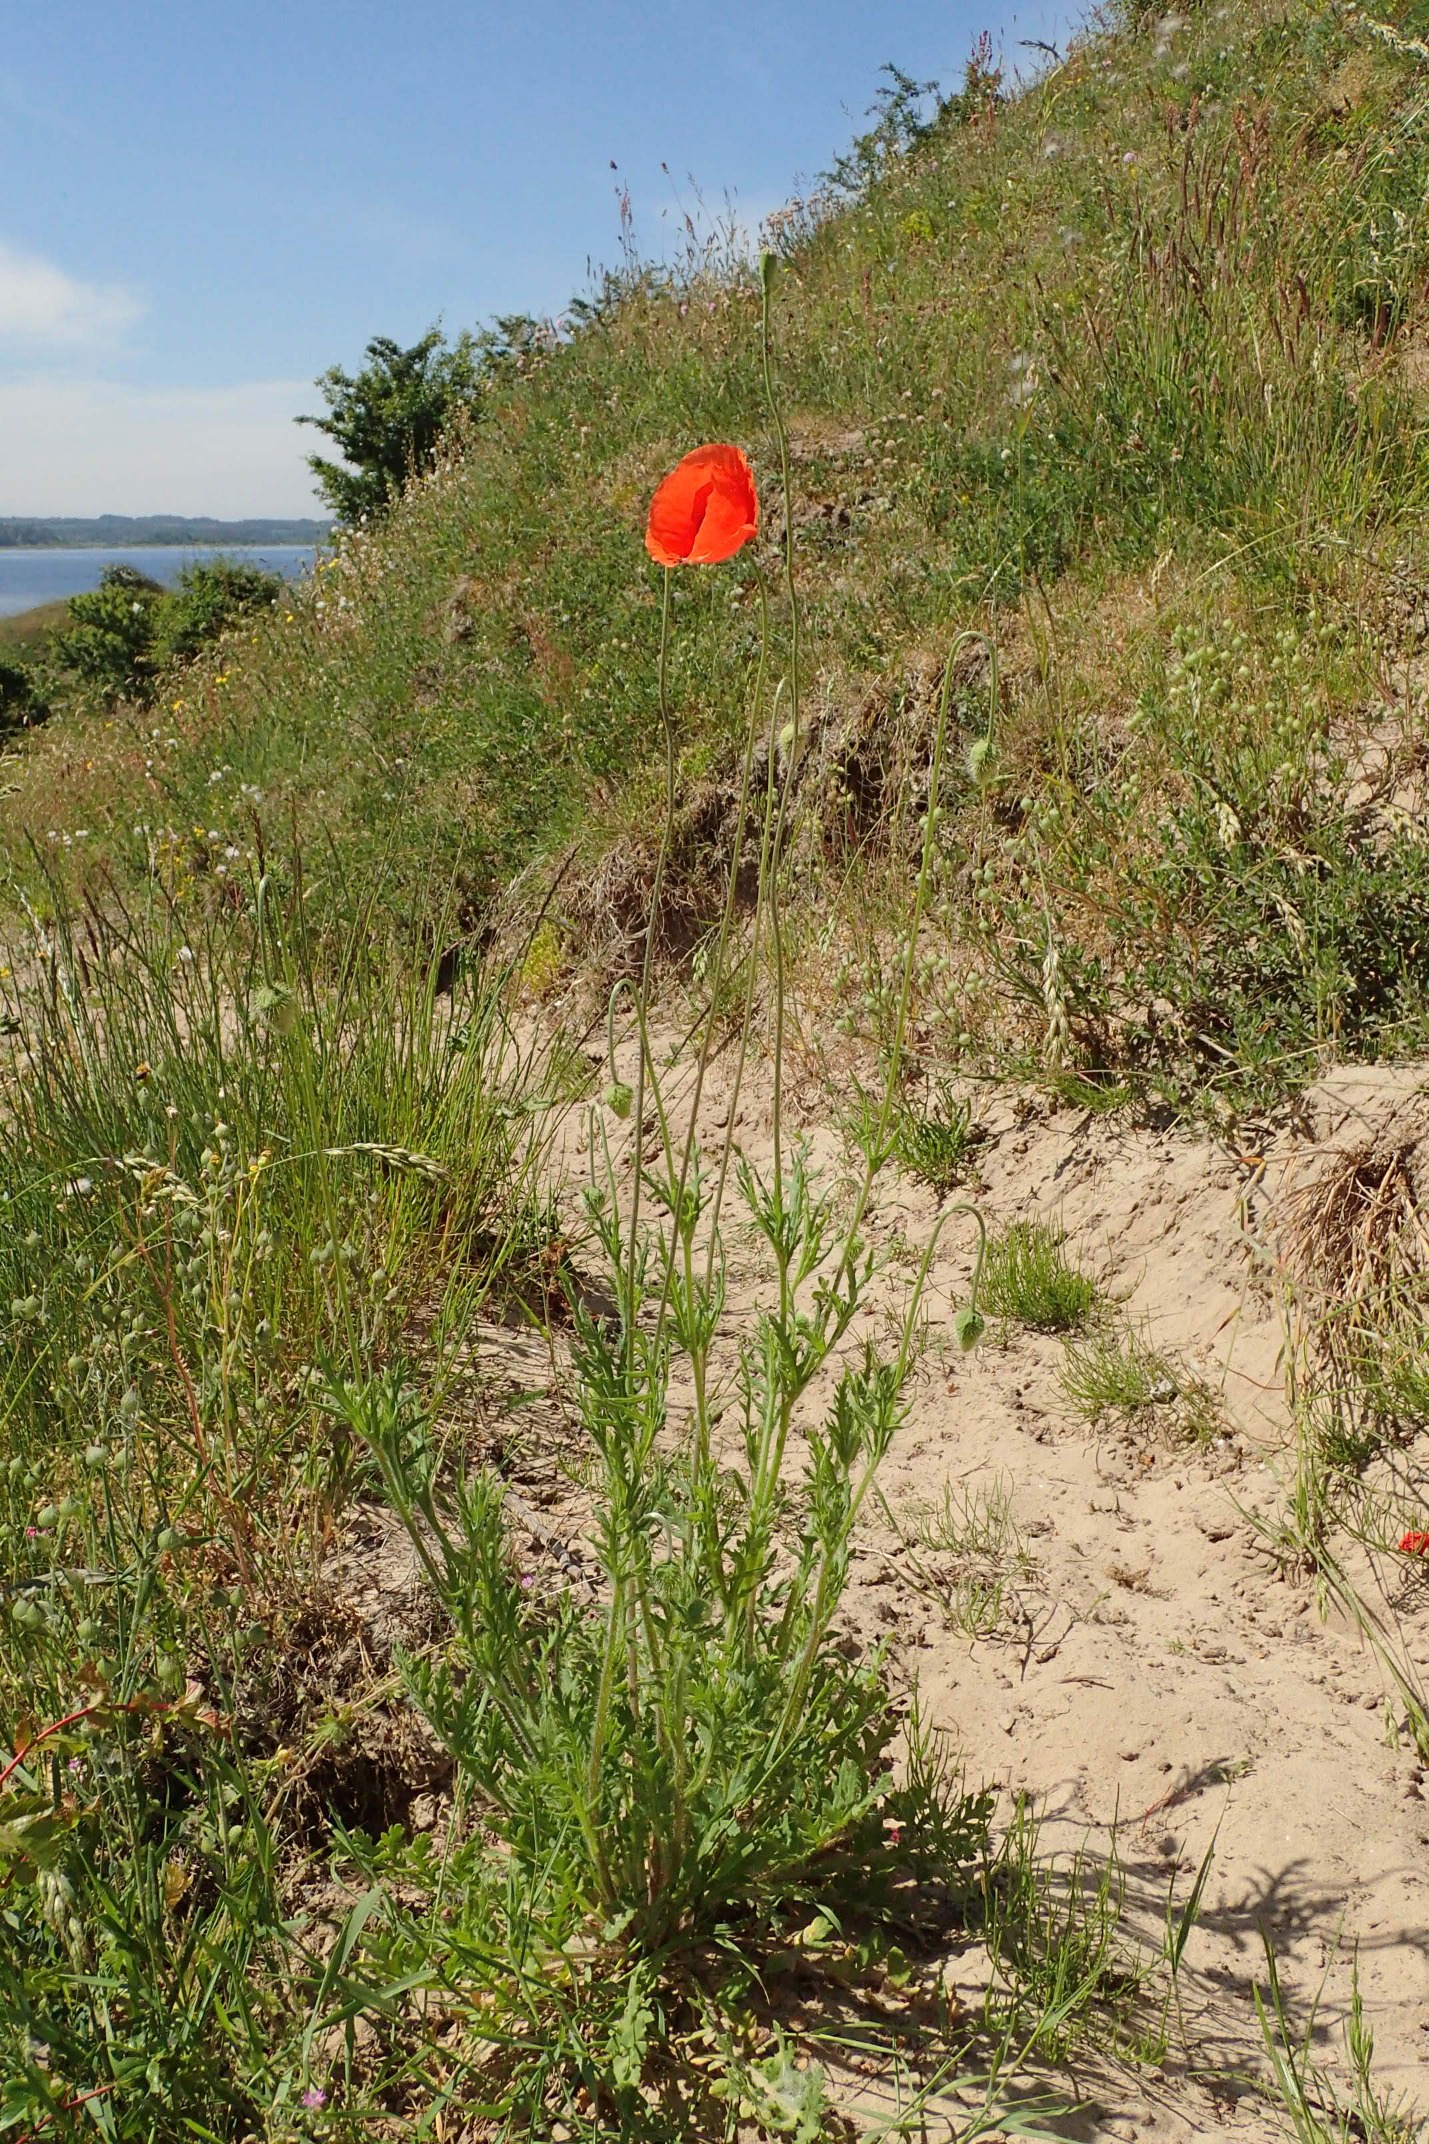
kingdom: Plantae
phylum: Tracheophyta
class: Magnoliopsida
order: Ranunculales
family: Papaveraceae
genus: Papaver
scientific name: Papaver dubium
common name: Gærde-valmue
